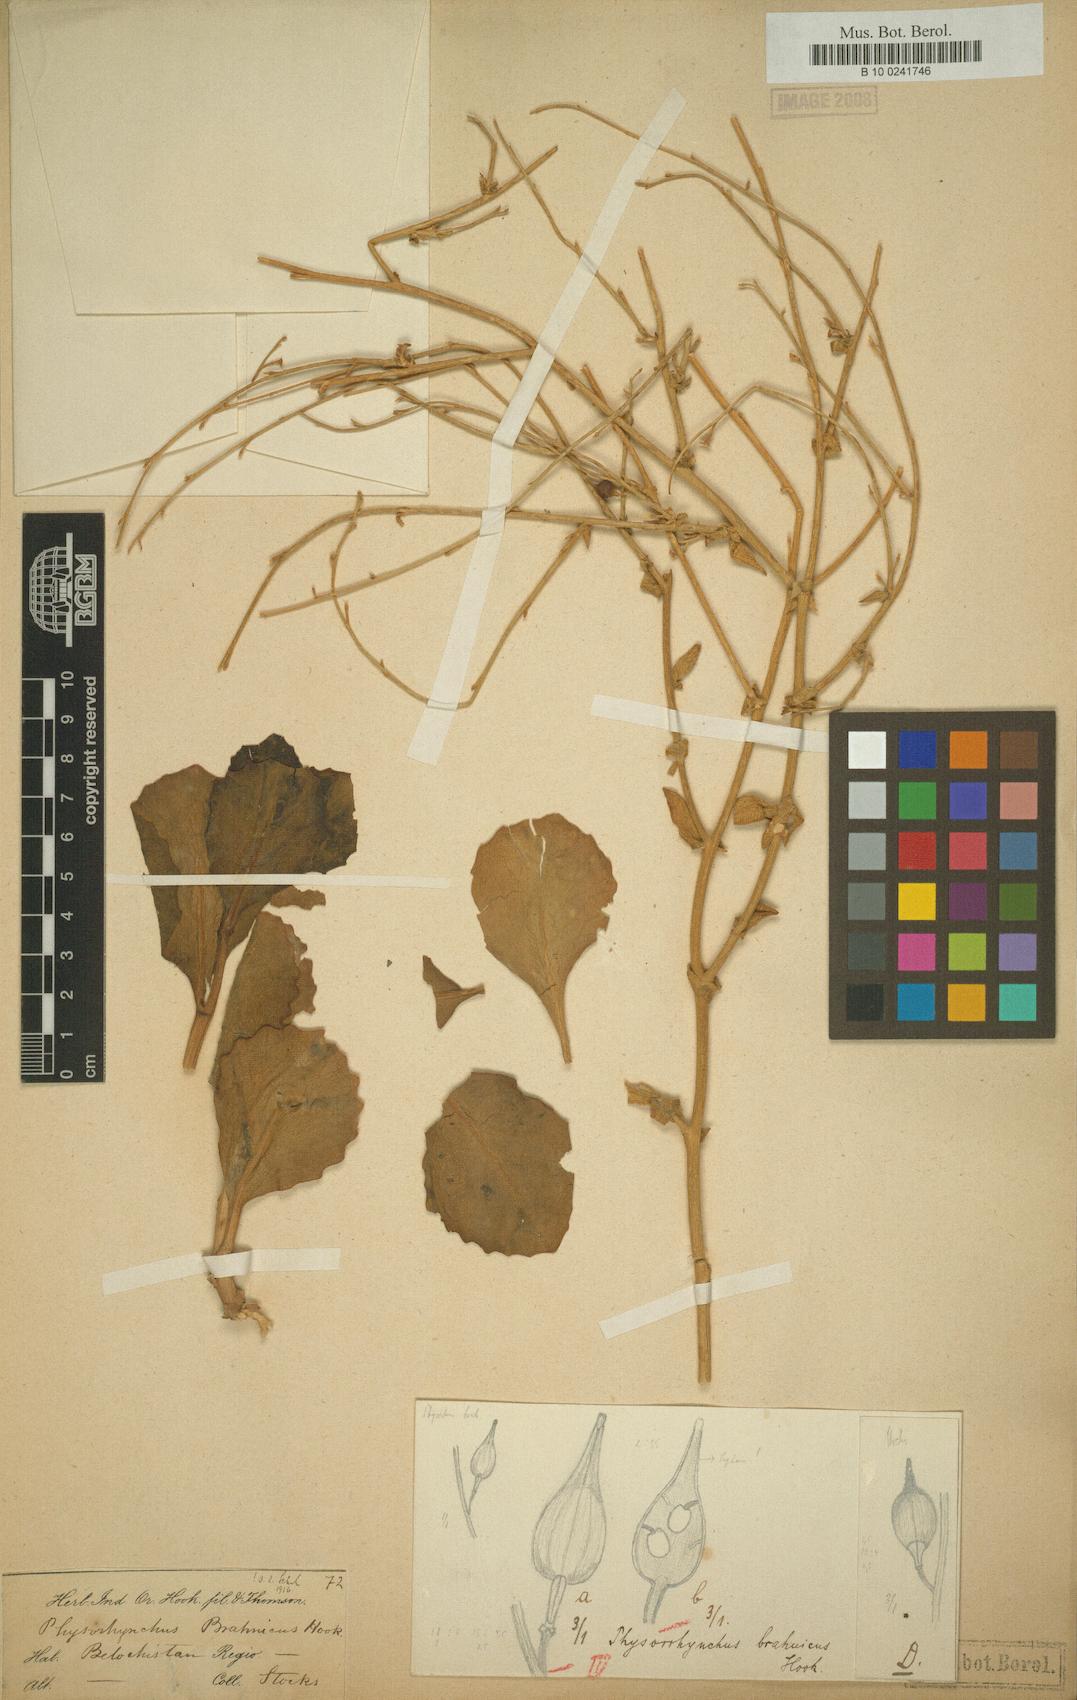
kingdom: Plantae
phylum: Tracheophyta
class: Magnoliopsida
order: Brassicales
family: Brassicaceae
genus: Physorhynchus
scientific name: Physorhynchus brahuicus
